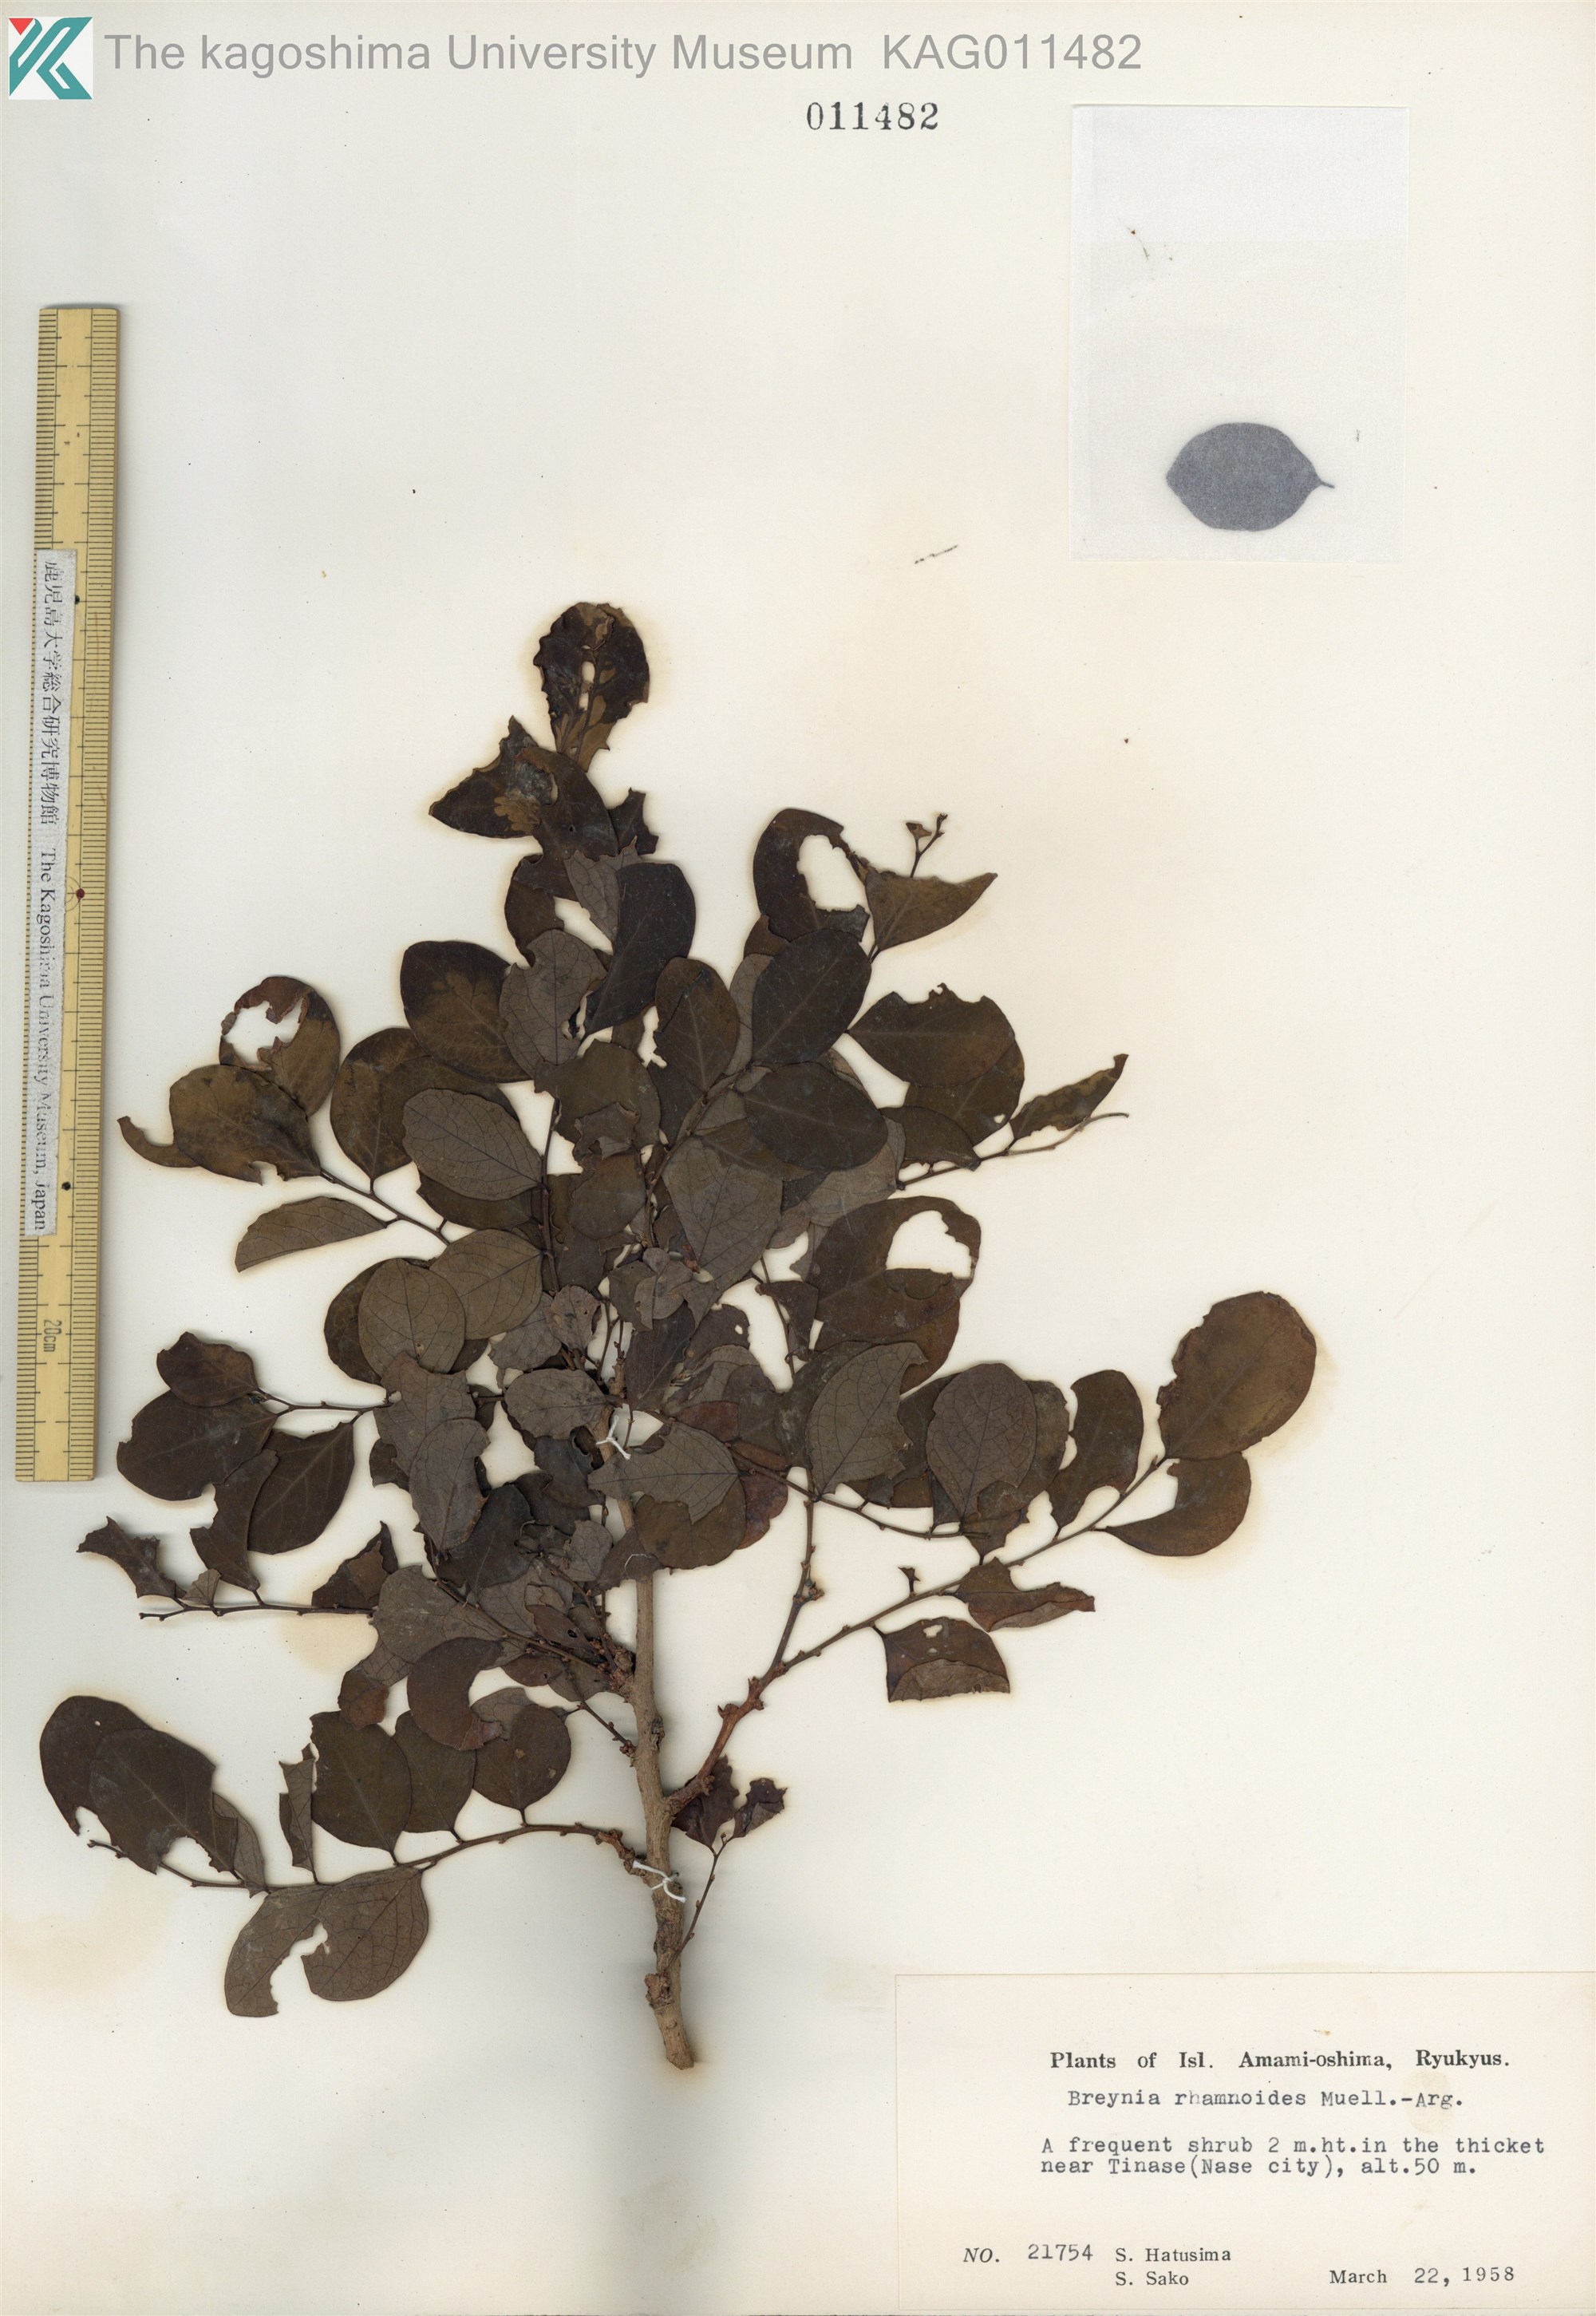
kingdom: Plantae
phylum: Tracheophyta
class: Magnoliopsida
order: Malpighiales
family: Phyllanthaceae
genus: Breynia
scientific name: Breynia vitis-idaea
